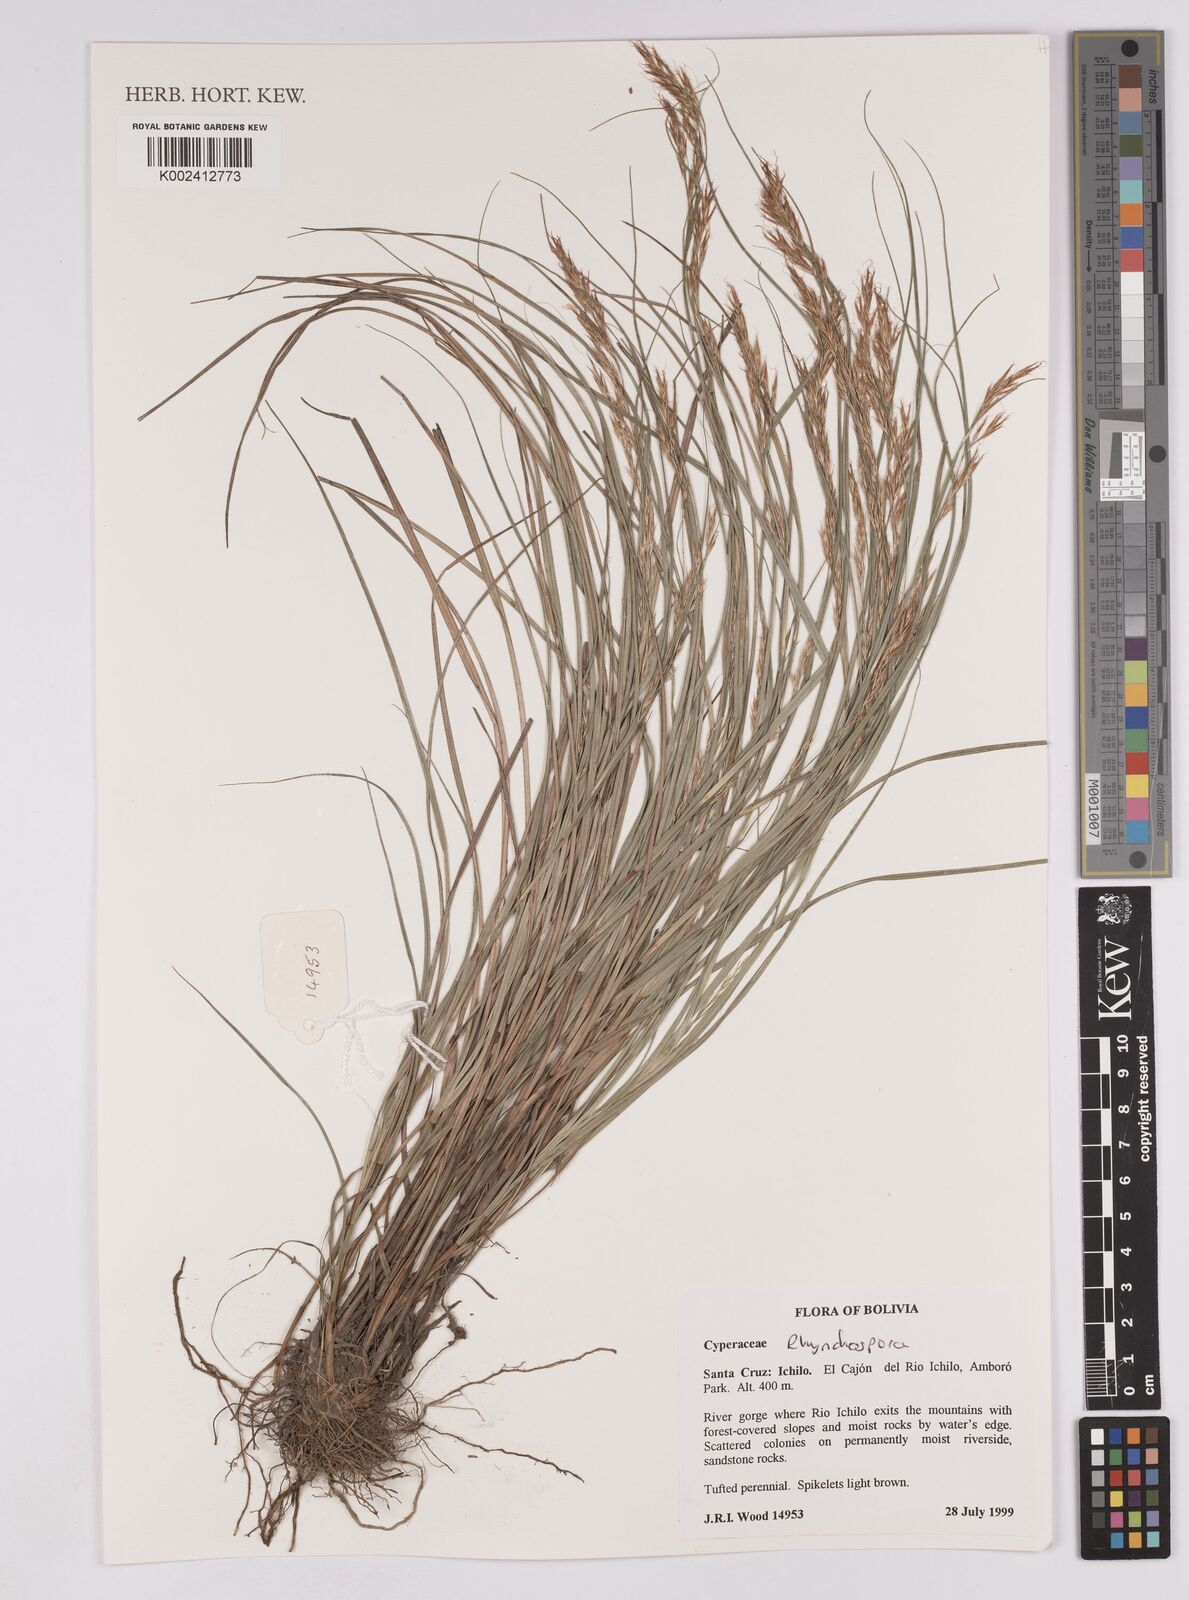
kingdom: Plantae
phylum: Tracheophyta
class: Liliopsida
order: Poales
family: Cyperaceae
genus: Rhynchospora
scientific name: Rhynchospora
